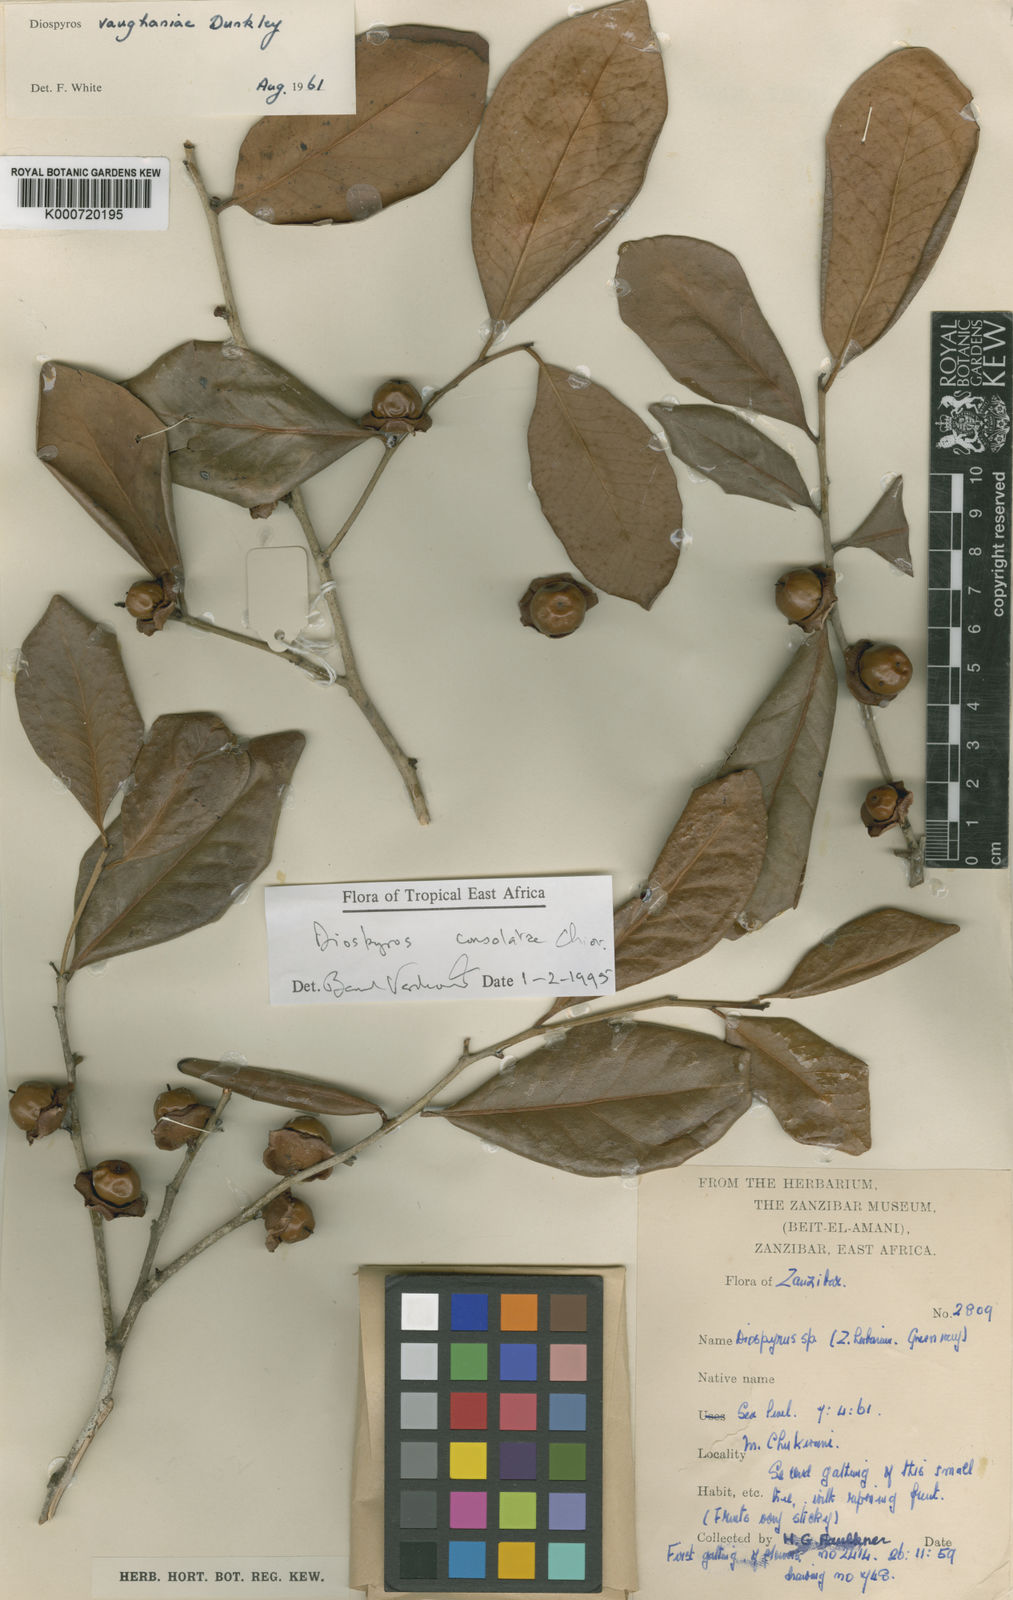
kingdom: Plantae
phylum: Tracheophyta
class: Magnoliopsida
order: Ericales
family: Ebenaceae
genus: Diospyros
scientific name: Diospyros consolatae
